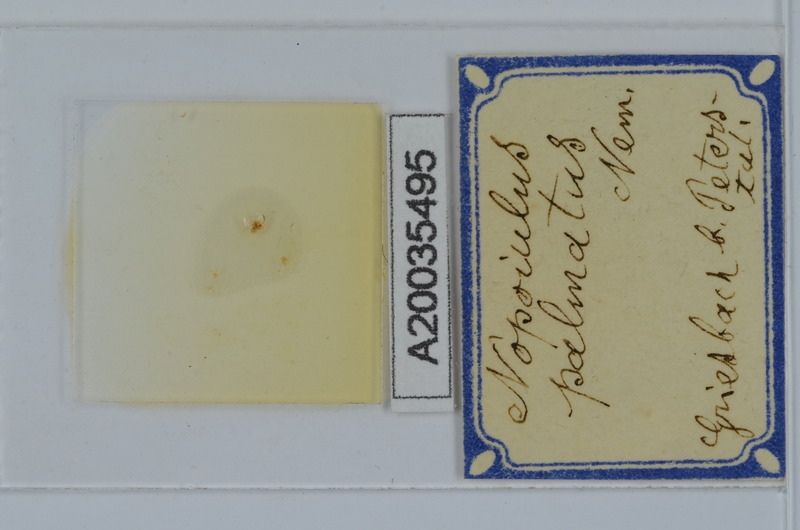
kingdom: Animalia
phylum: Arthropoda
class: Diplopoda
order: Julida
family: Blaniulidae
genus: Nopoiulus
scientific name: Nopoiulus palmatus
